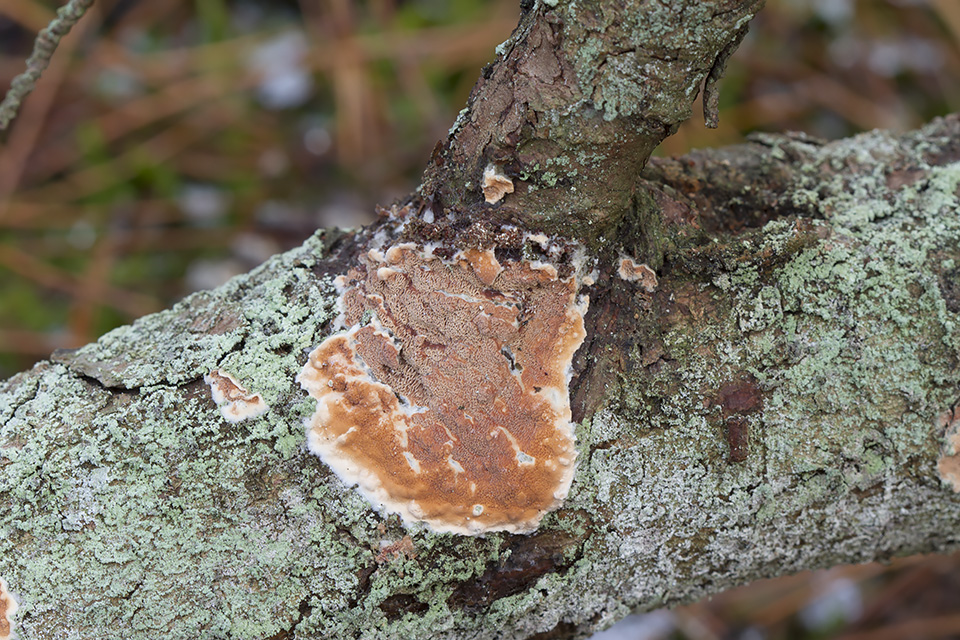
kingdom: Fungi
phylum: Basidiomycota
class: Agaricomycetes
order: Polyporales
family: Irpicaceae
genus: Meruliopsis
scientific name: Meruliopsis taxicola
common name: purpurbrun foldporesvamp
